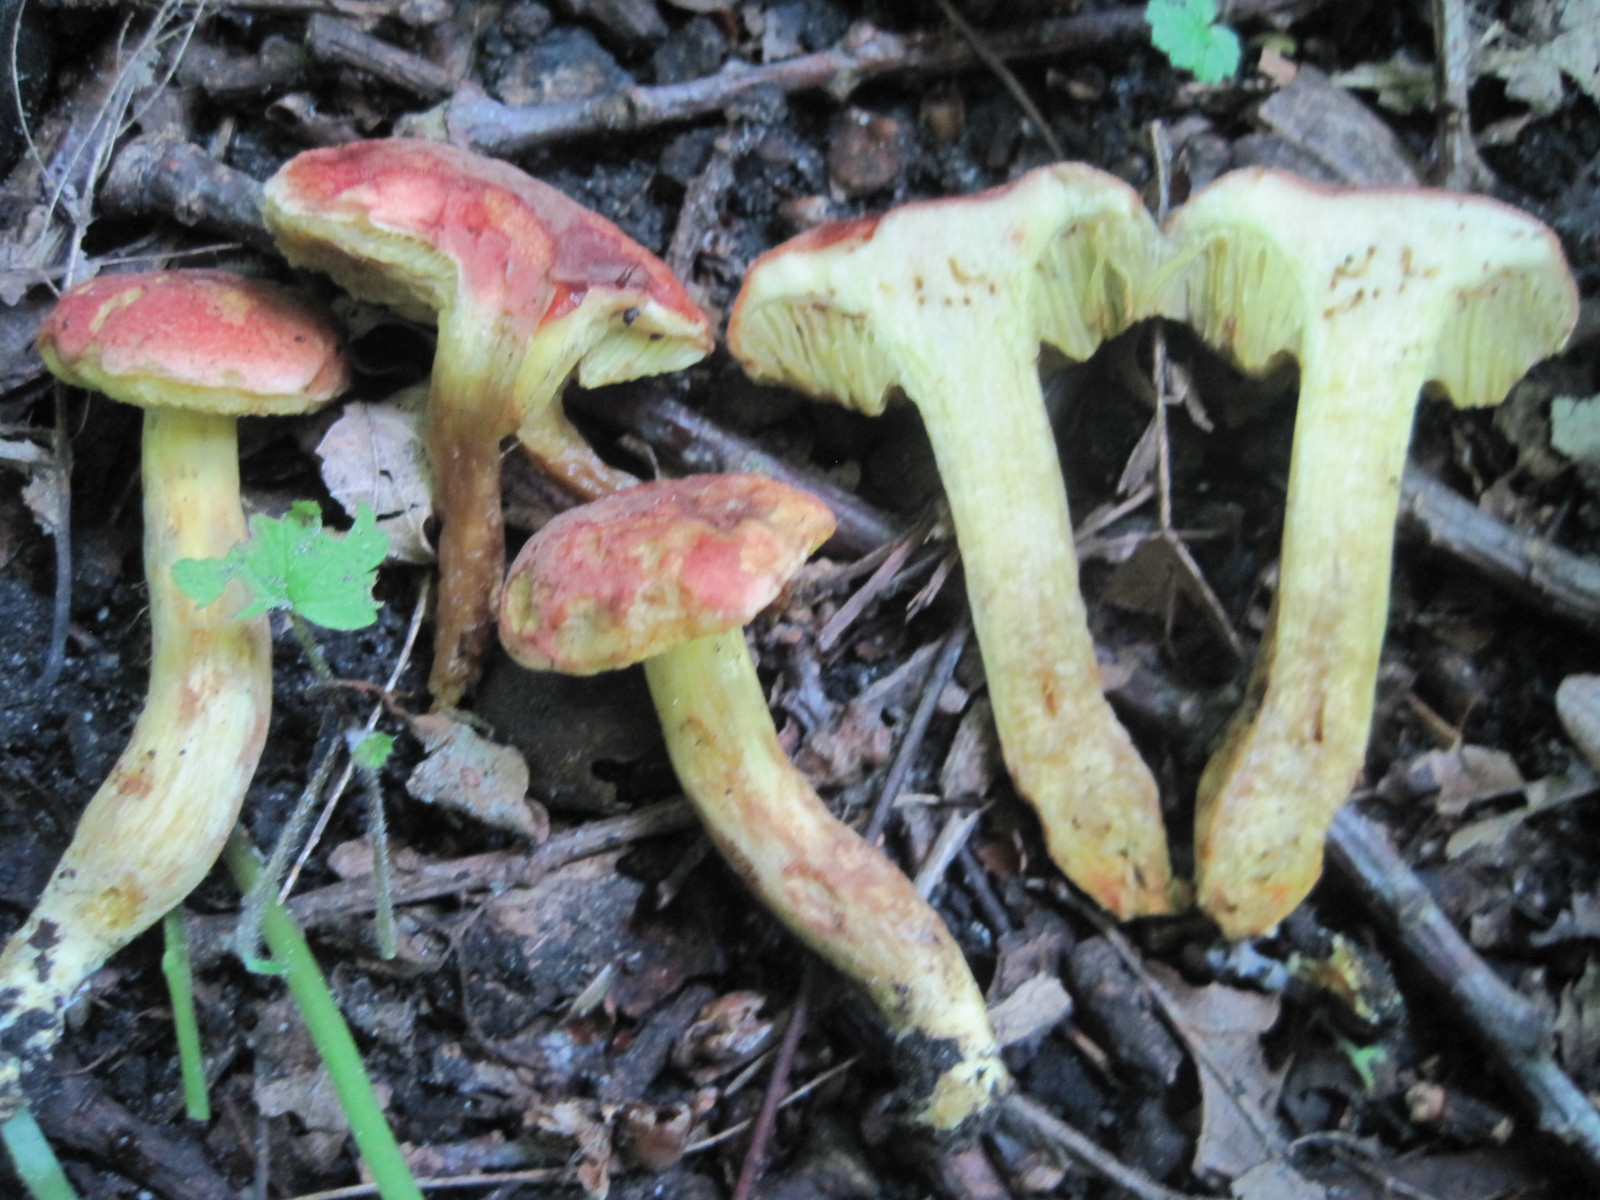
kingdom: Fungi
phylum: Basidiomycota
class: Agaricomycetes
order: Boletales
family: Boletaceae
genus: Hortiboletus
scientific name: Hortiboletus engelii
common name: fersken-rørhat
